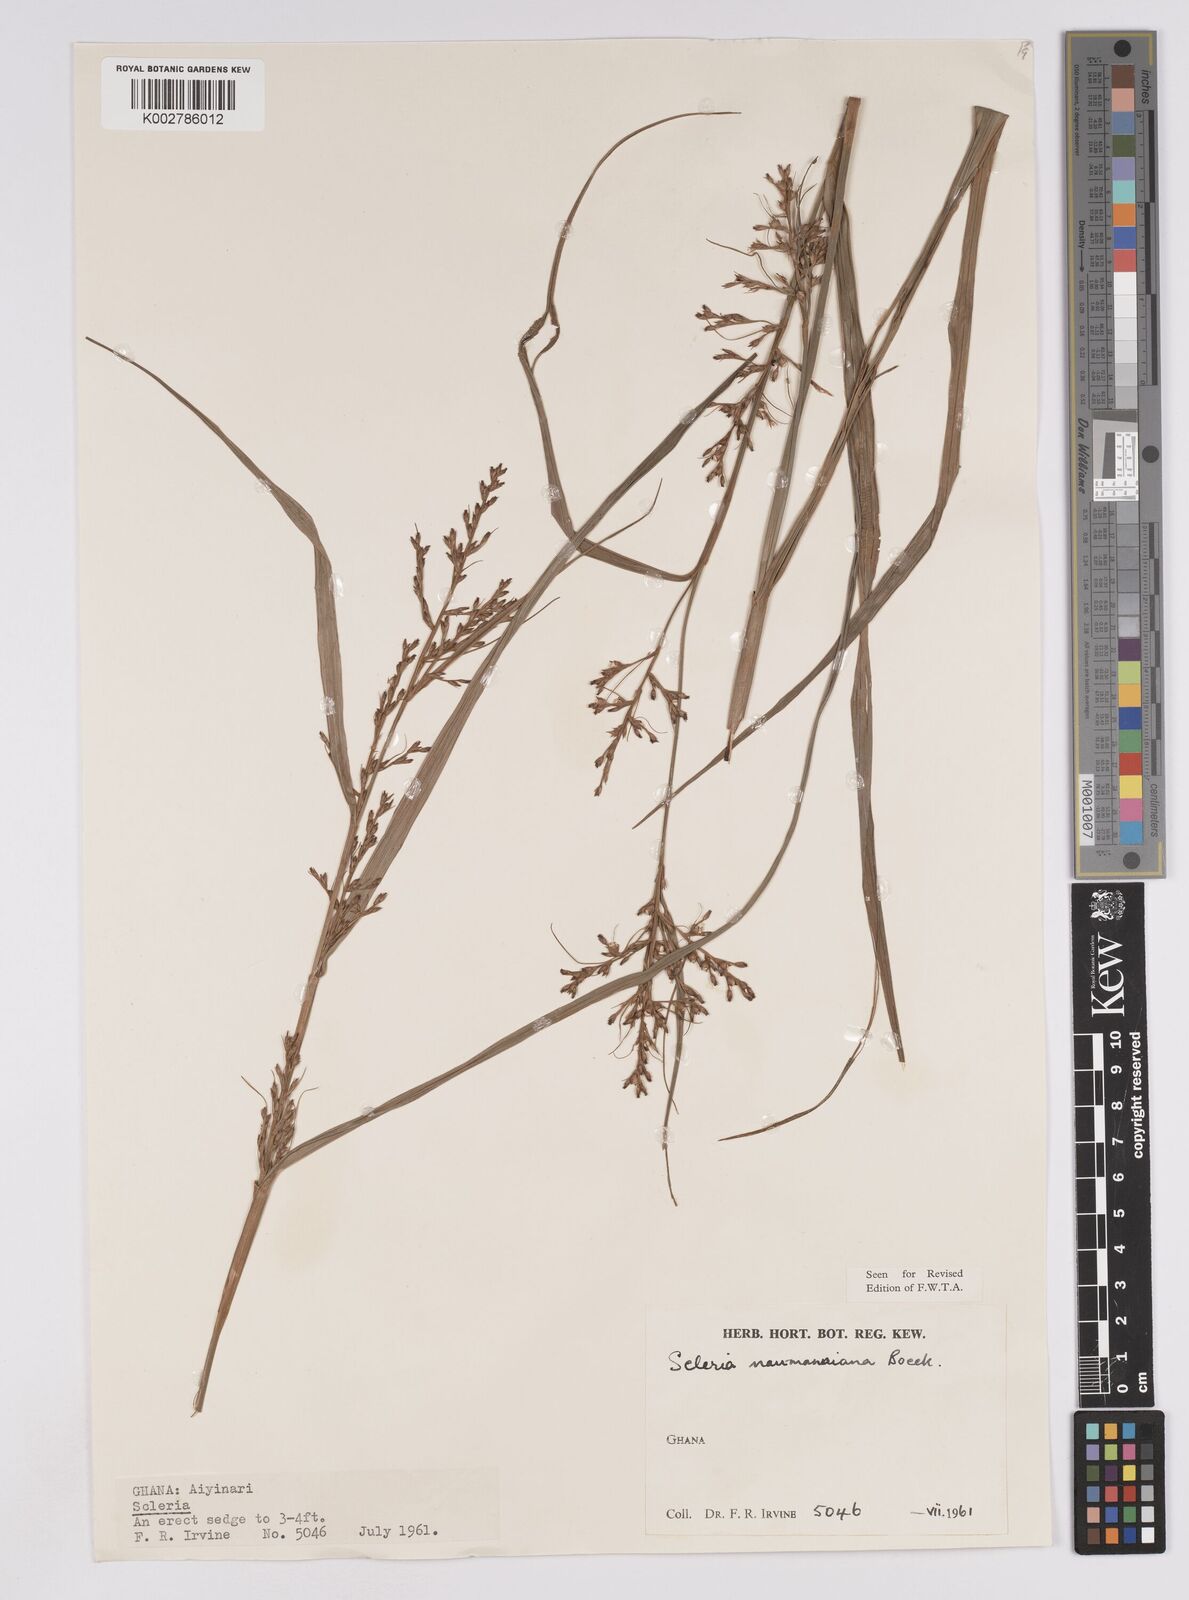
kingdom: Plantae
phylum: Tracheophyta
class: Liliopsida
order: Poales
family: Cyperaceae
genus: Scleria
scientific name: Scleria naumanniana
